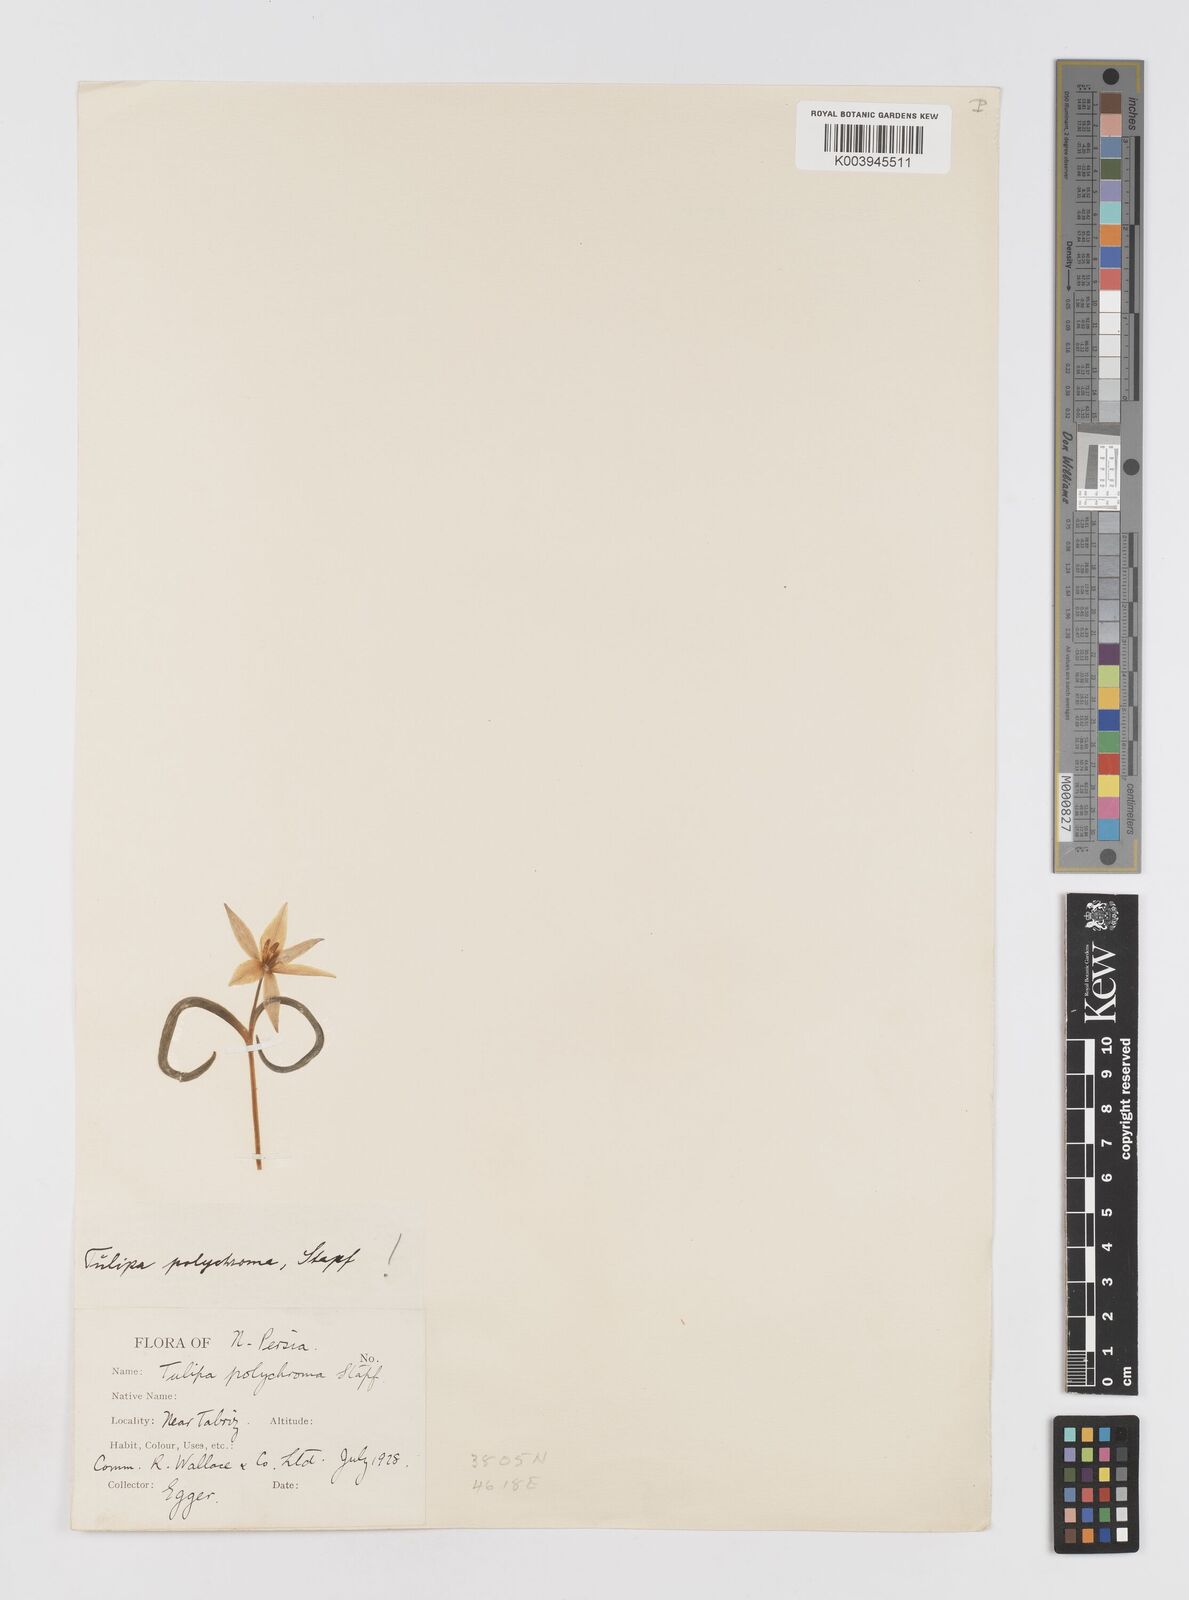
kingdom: Plantae
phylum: Tracheophyta
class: Liliopsida
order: Liliales
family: Liliaceae
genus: Tulipa
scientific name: Tulipa biflora
